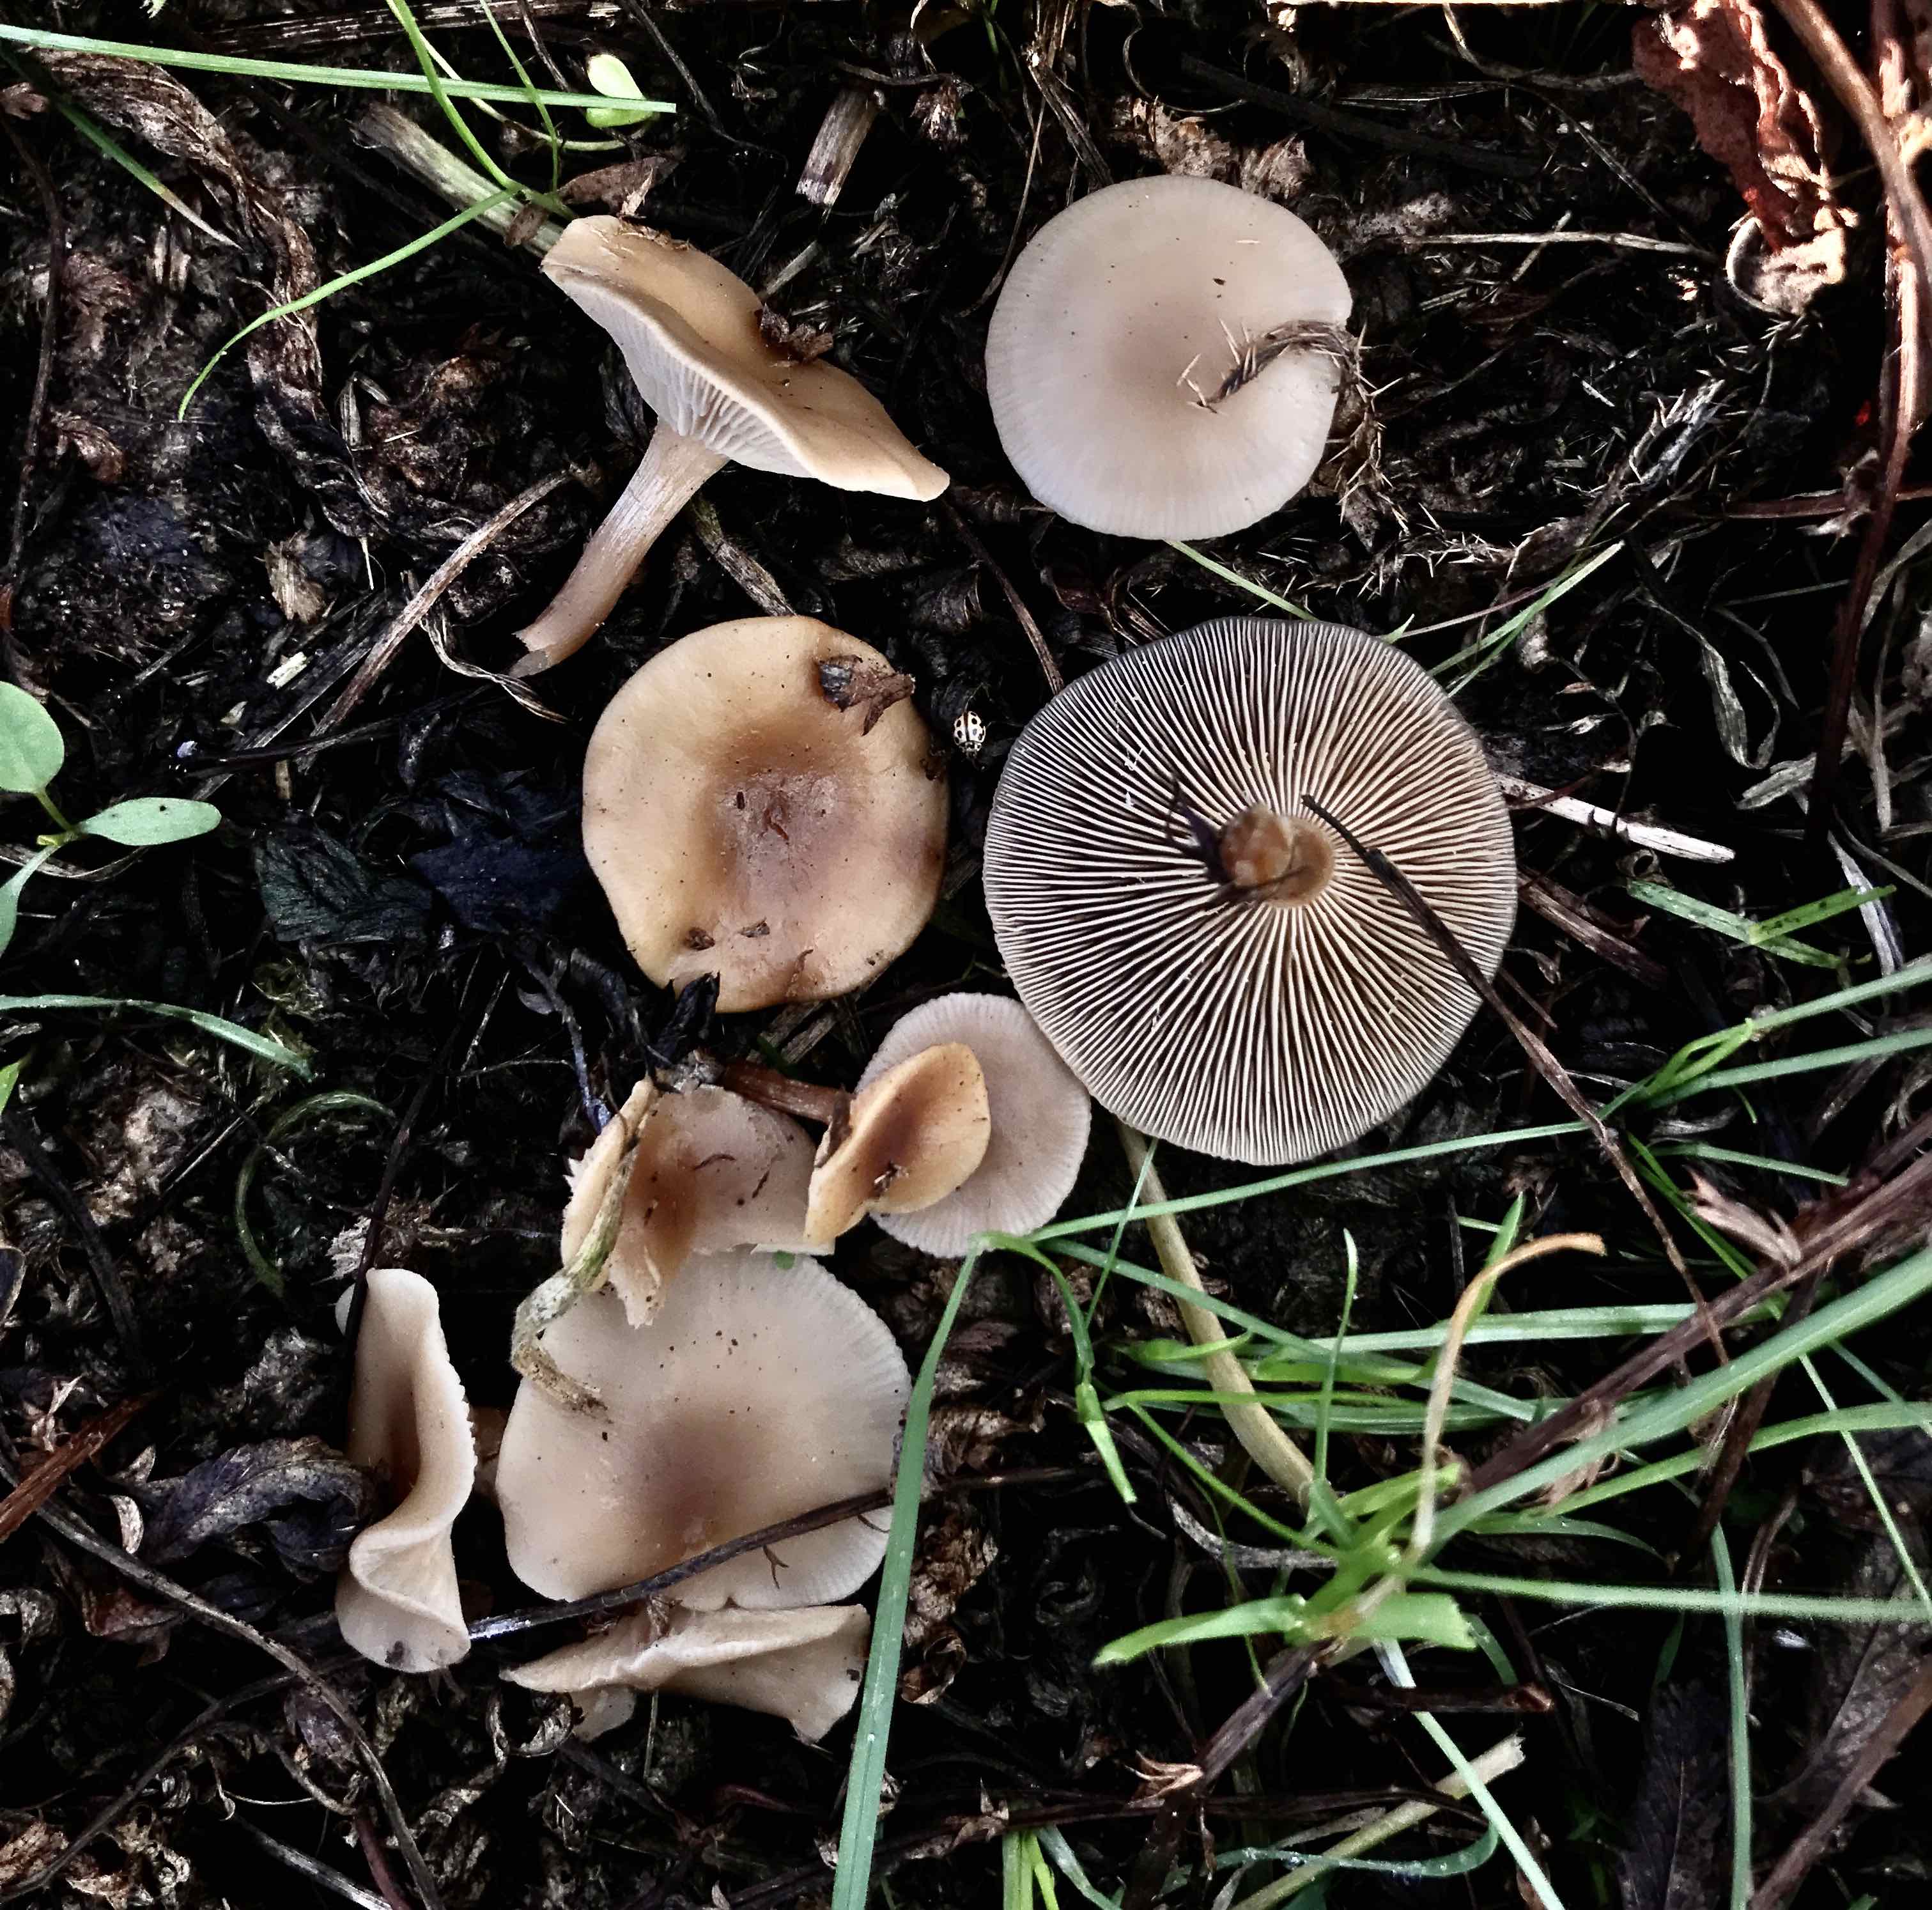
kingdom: Fungi
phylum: Basidiomycota
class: Agaricomycetes
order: Agaricales
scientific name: Agaricales
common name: champignonordenen
